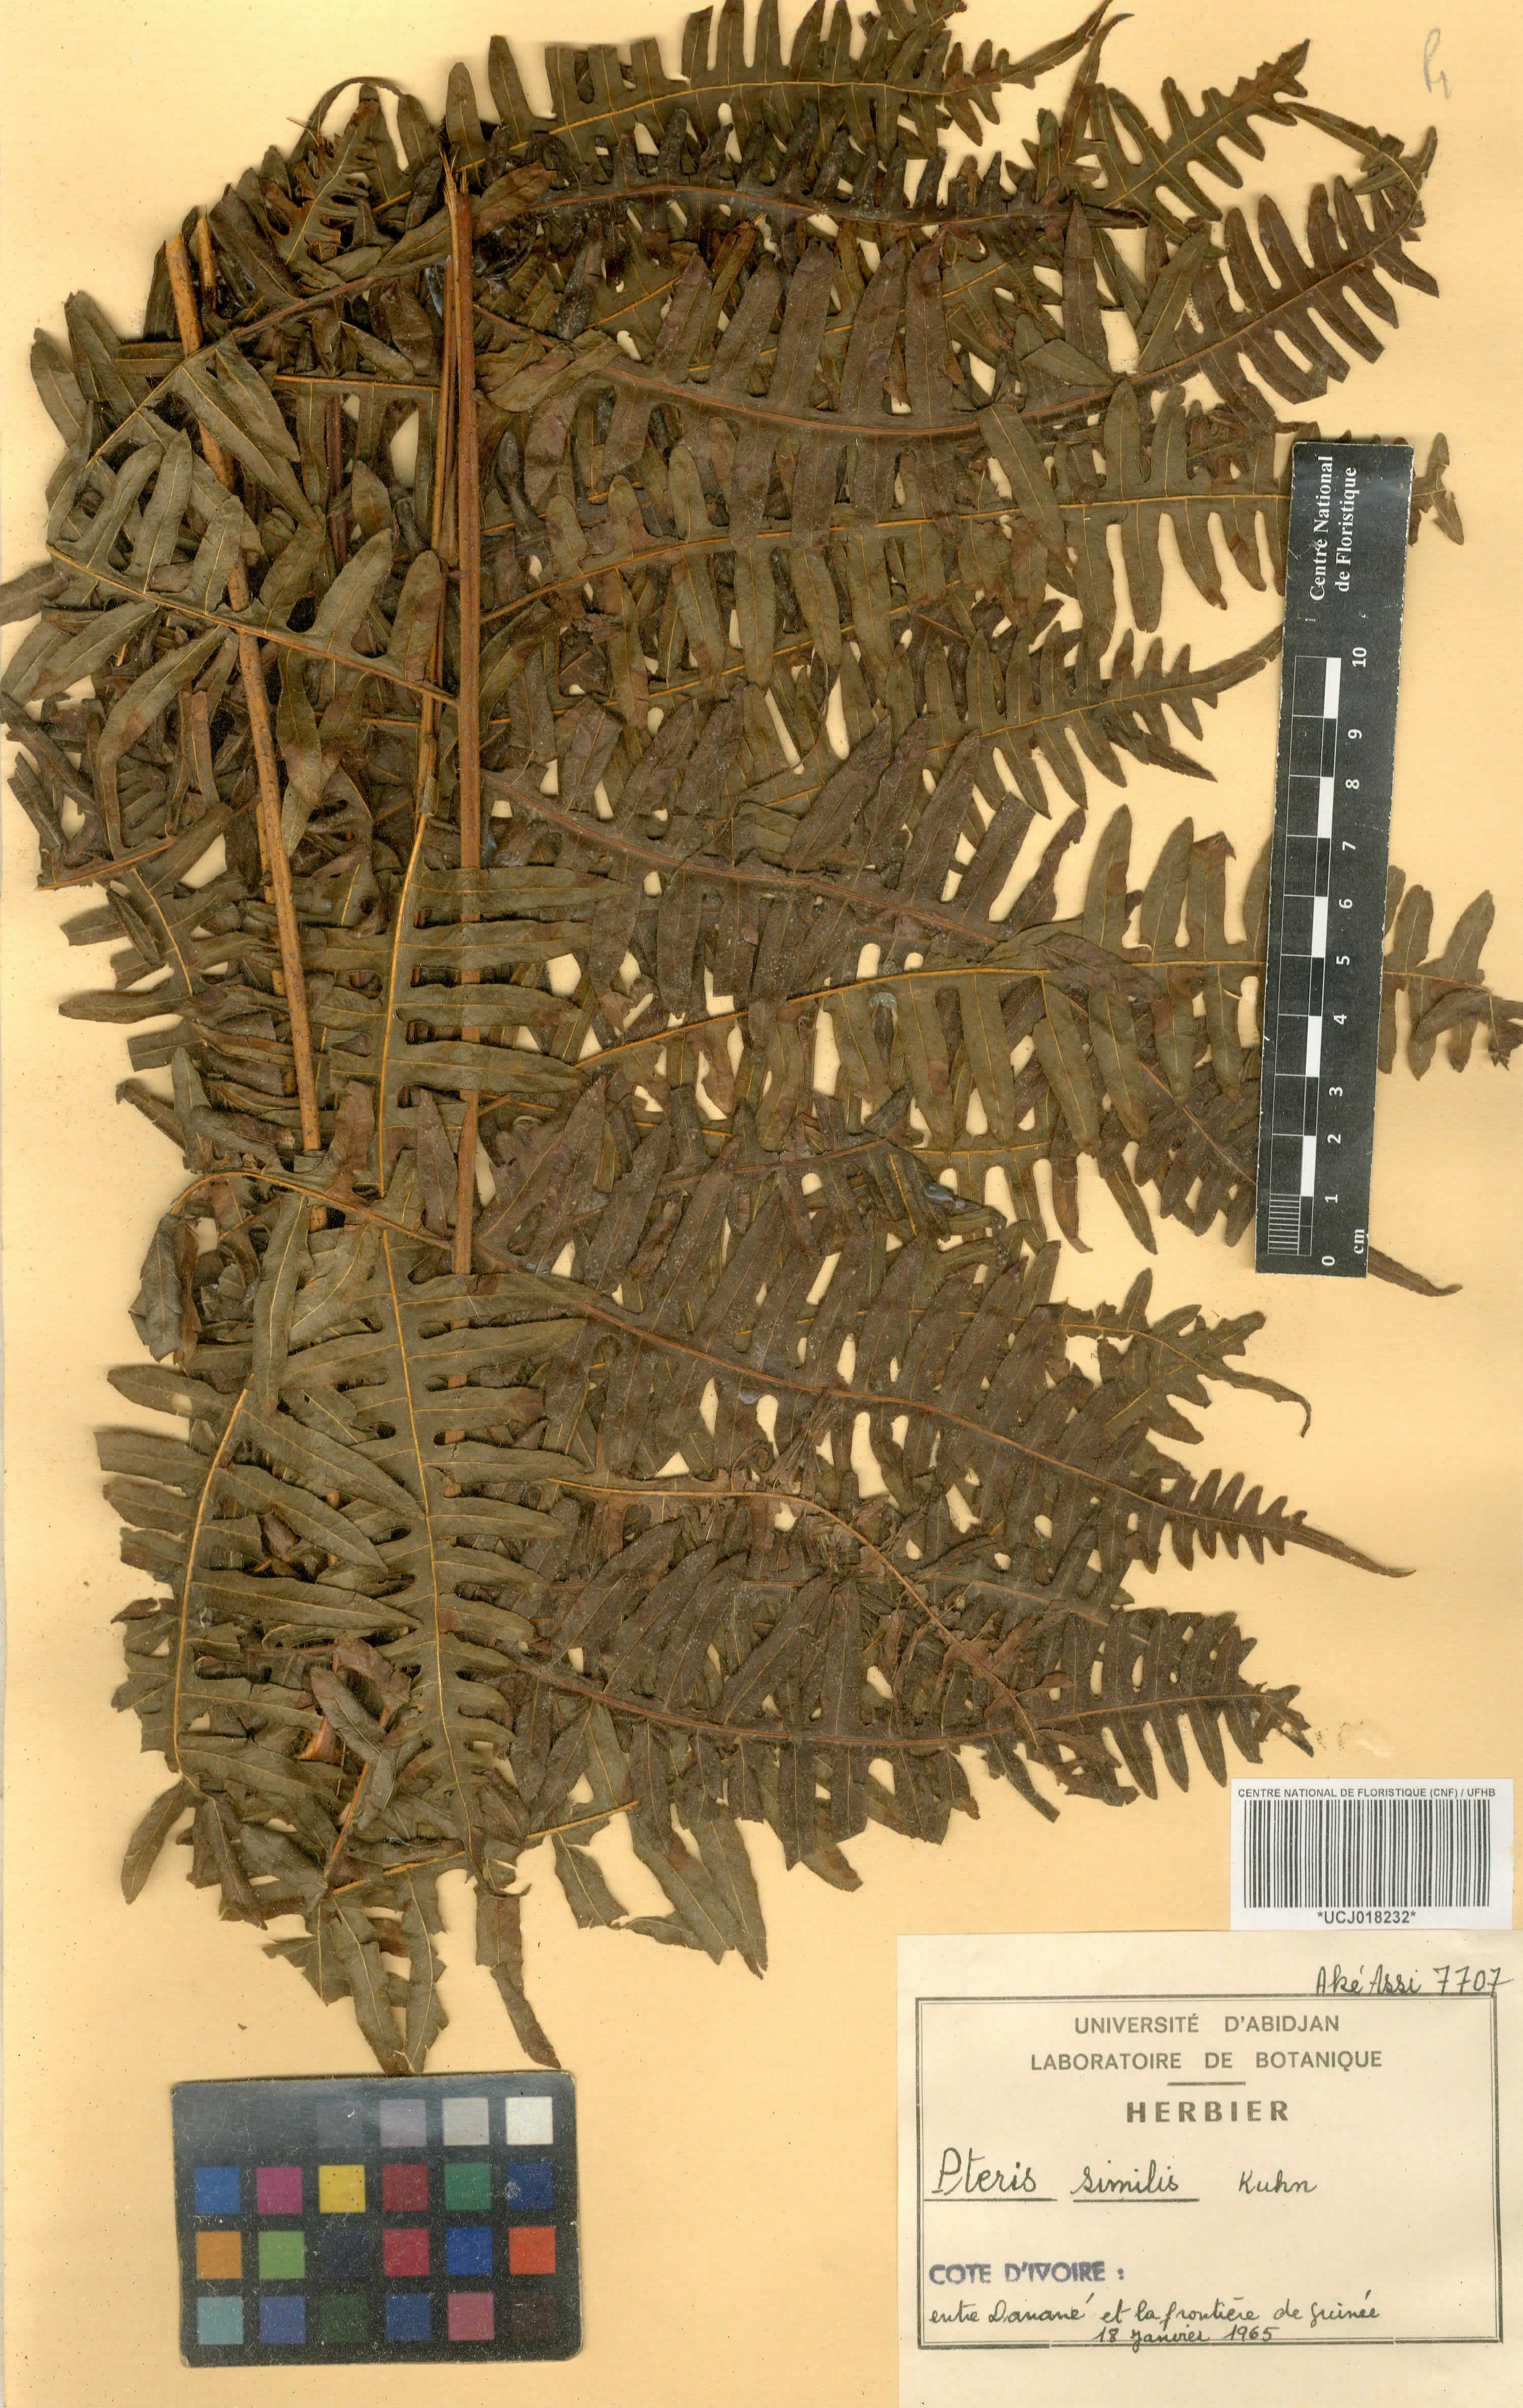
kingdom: Plantae
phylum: Tracheophyta
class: Polypodiopsida
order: Polypodiales
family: Pteridaceae
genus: Pteris
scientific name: Pteris similis
